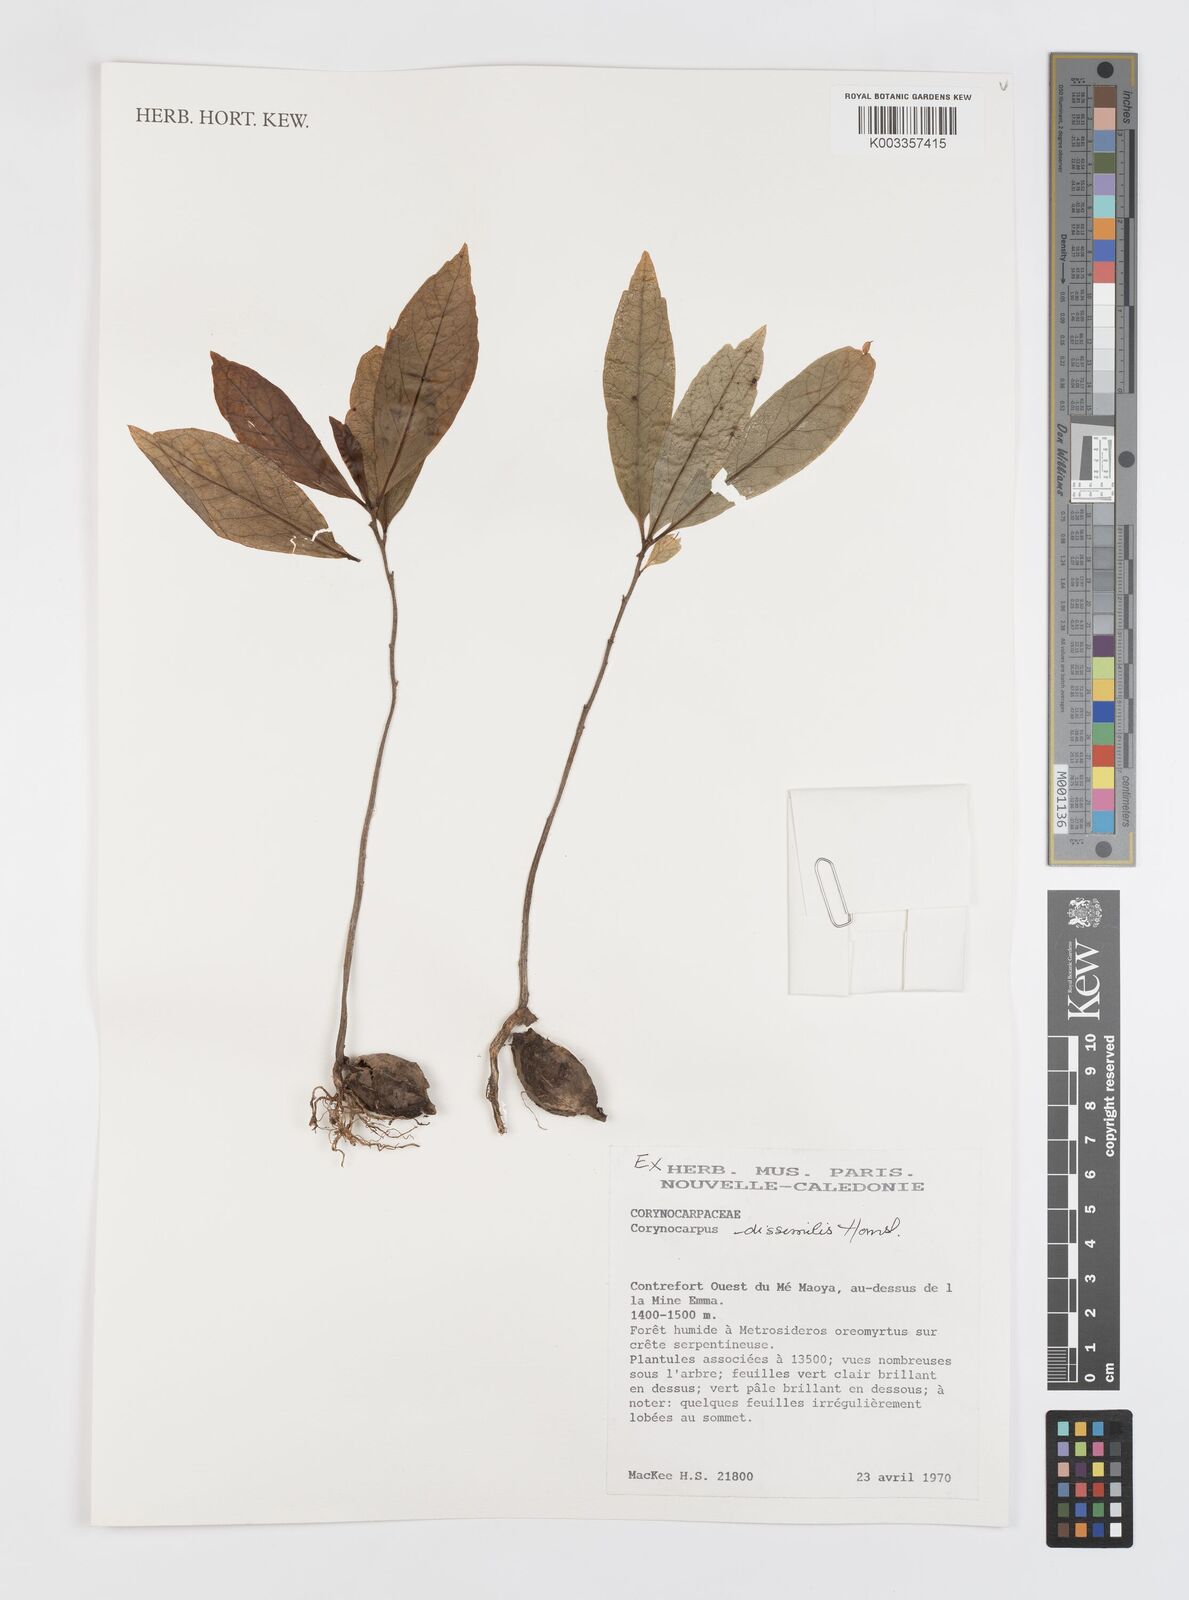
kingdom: Plantae
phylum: Tracheophyta
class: Magnoliopsida
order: Cucurbitales
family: Corynocarpaceae
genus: Corynocarpus
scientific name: Corynocarpus dissimilis
